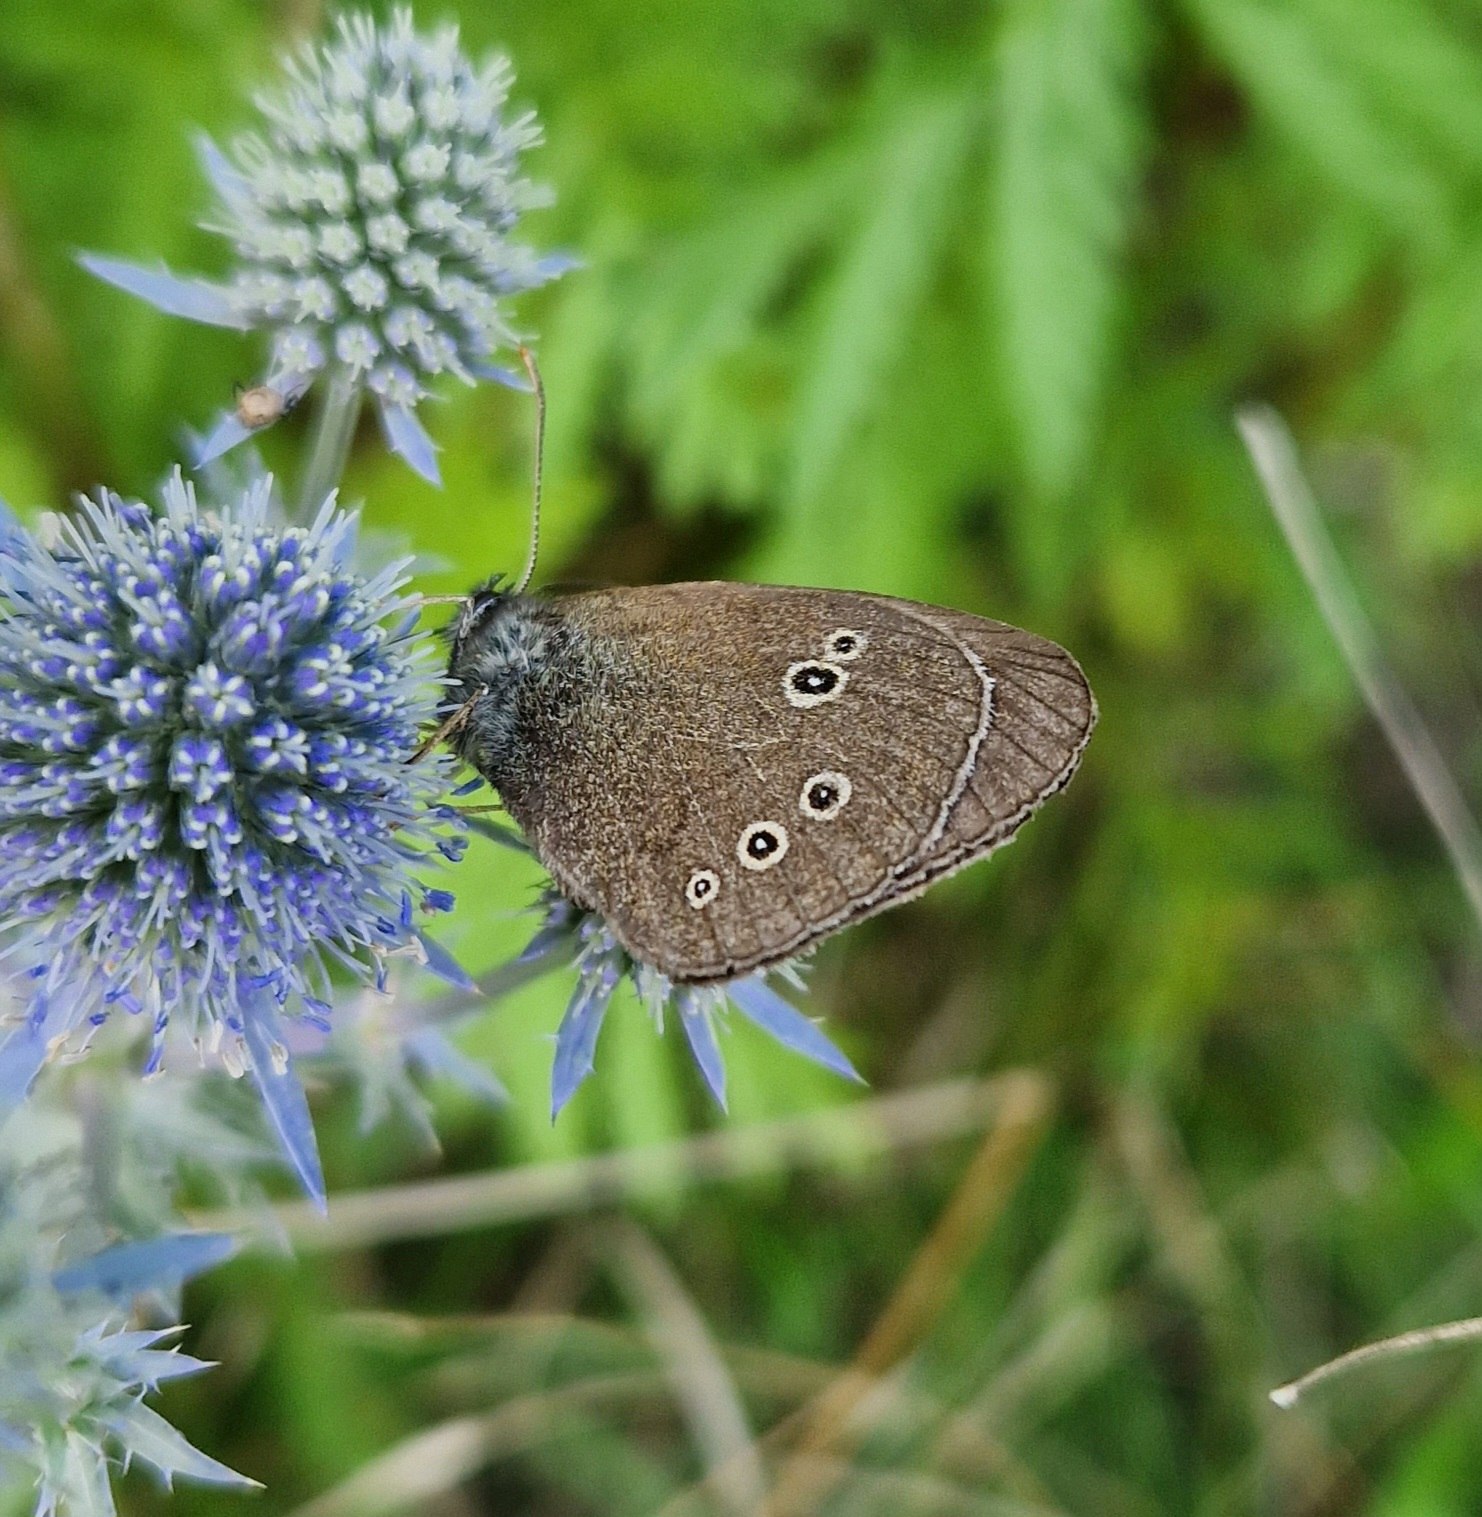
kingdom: Animalia
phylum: Arthropoda
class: Insecta
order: Lepidoptera
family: Nymphalidae
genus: Aphantopus
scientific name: Aphantopus hyperantus
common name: Engrandøje
